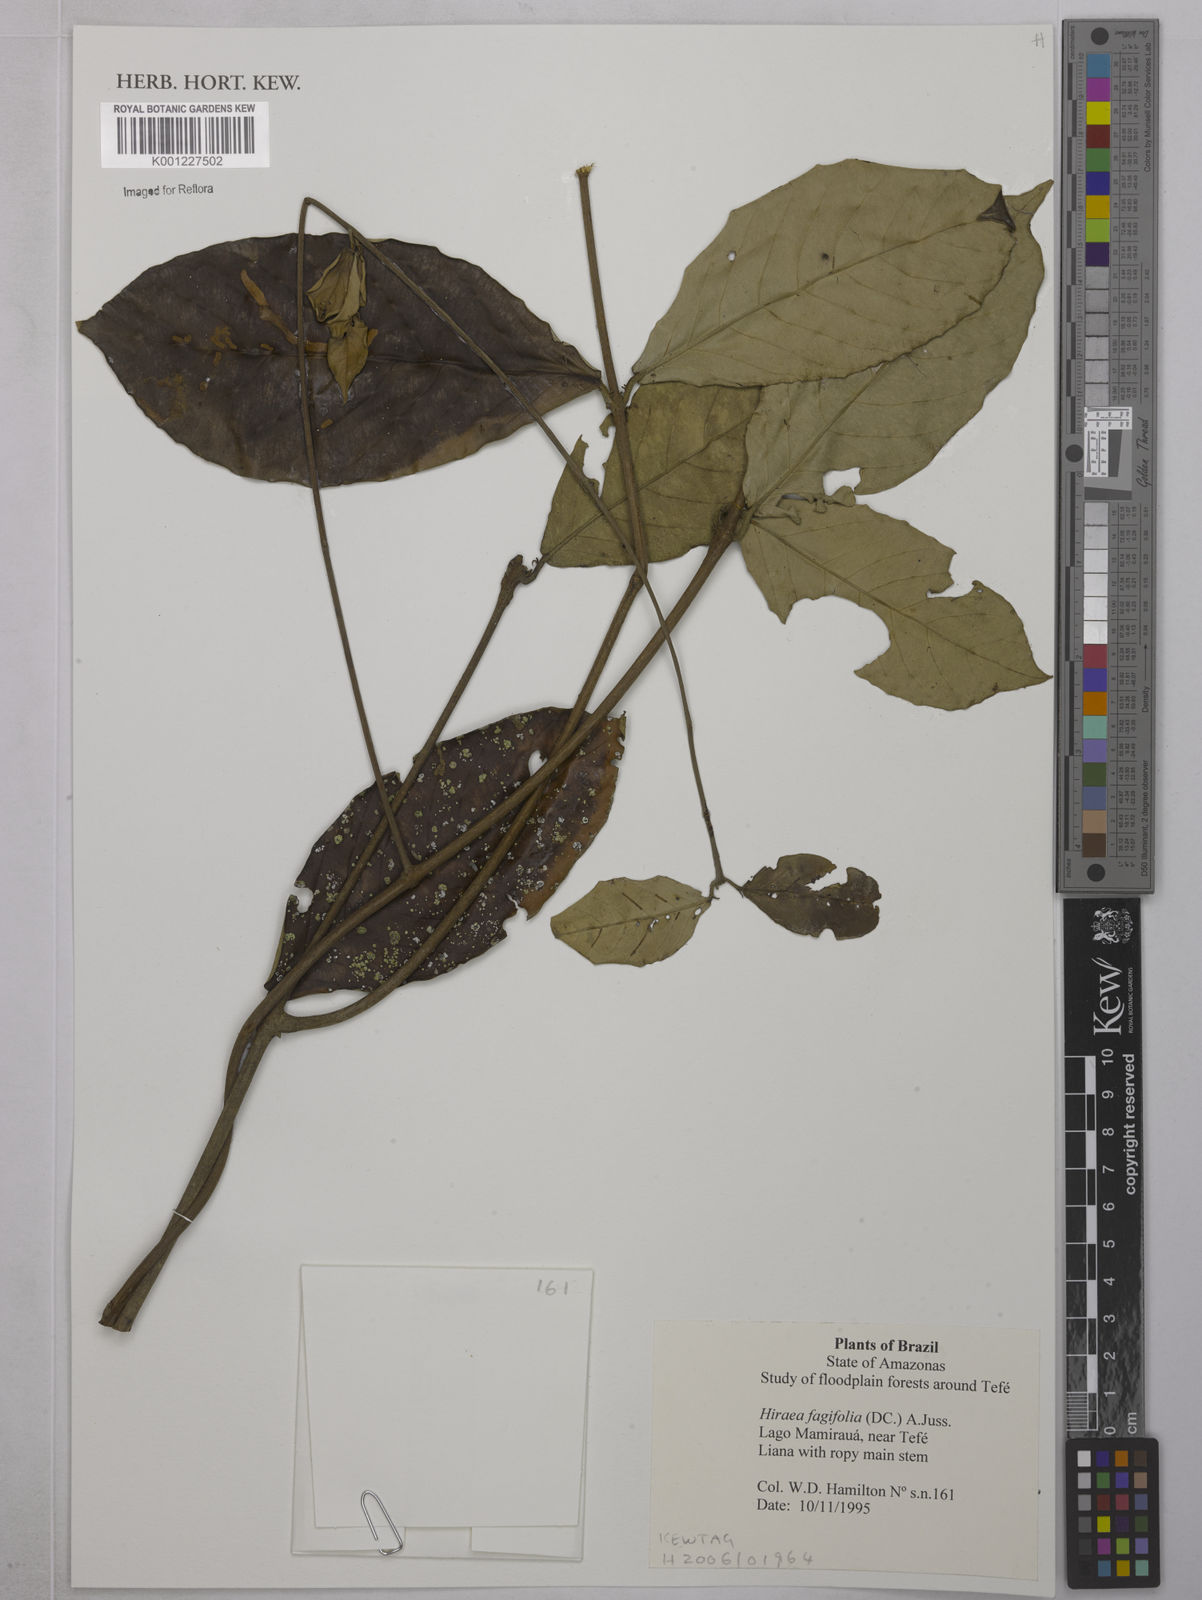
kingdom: Plantae
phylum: Tracheophyta
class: Magnoliopsida
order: Malpighiales
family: Malpighiaceae
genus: Hiraea
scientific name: Hiraea fagifolia
